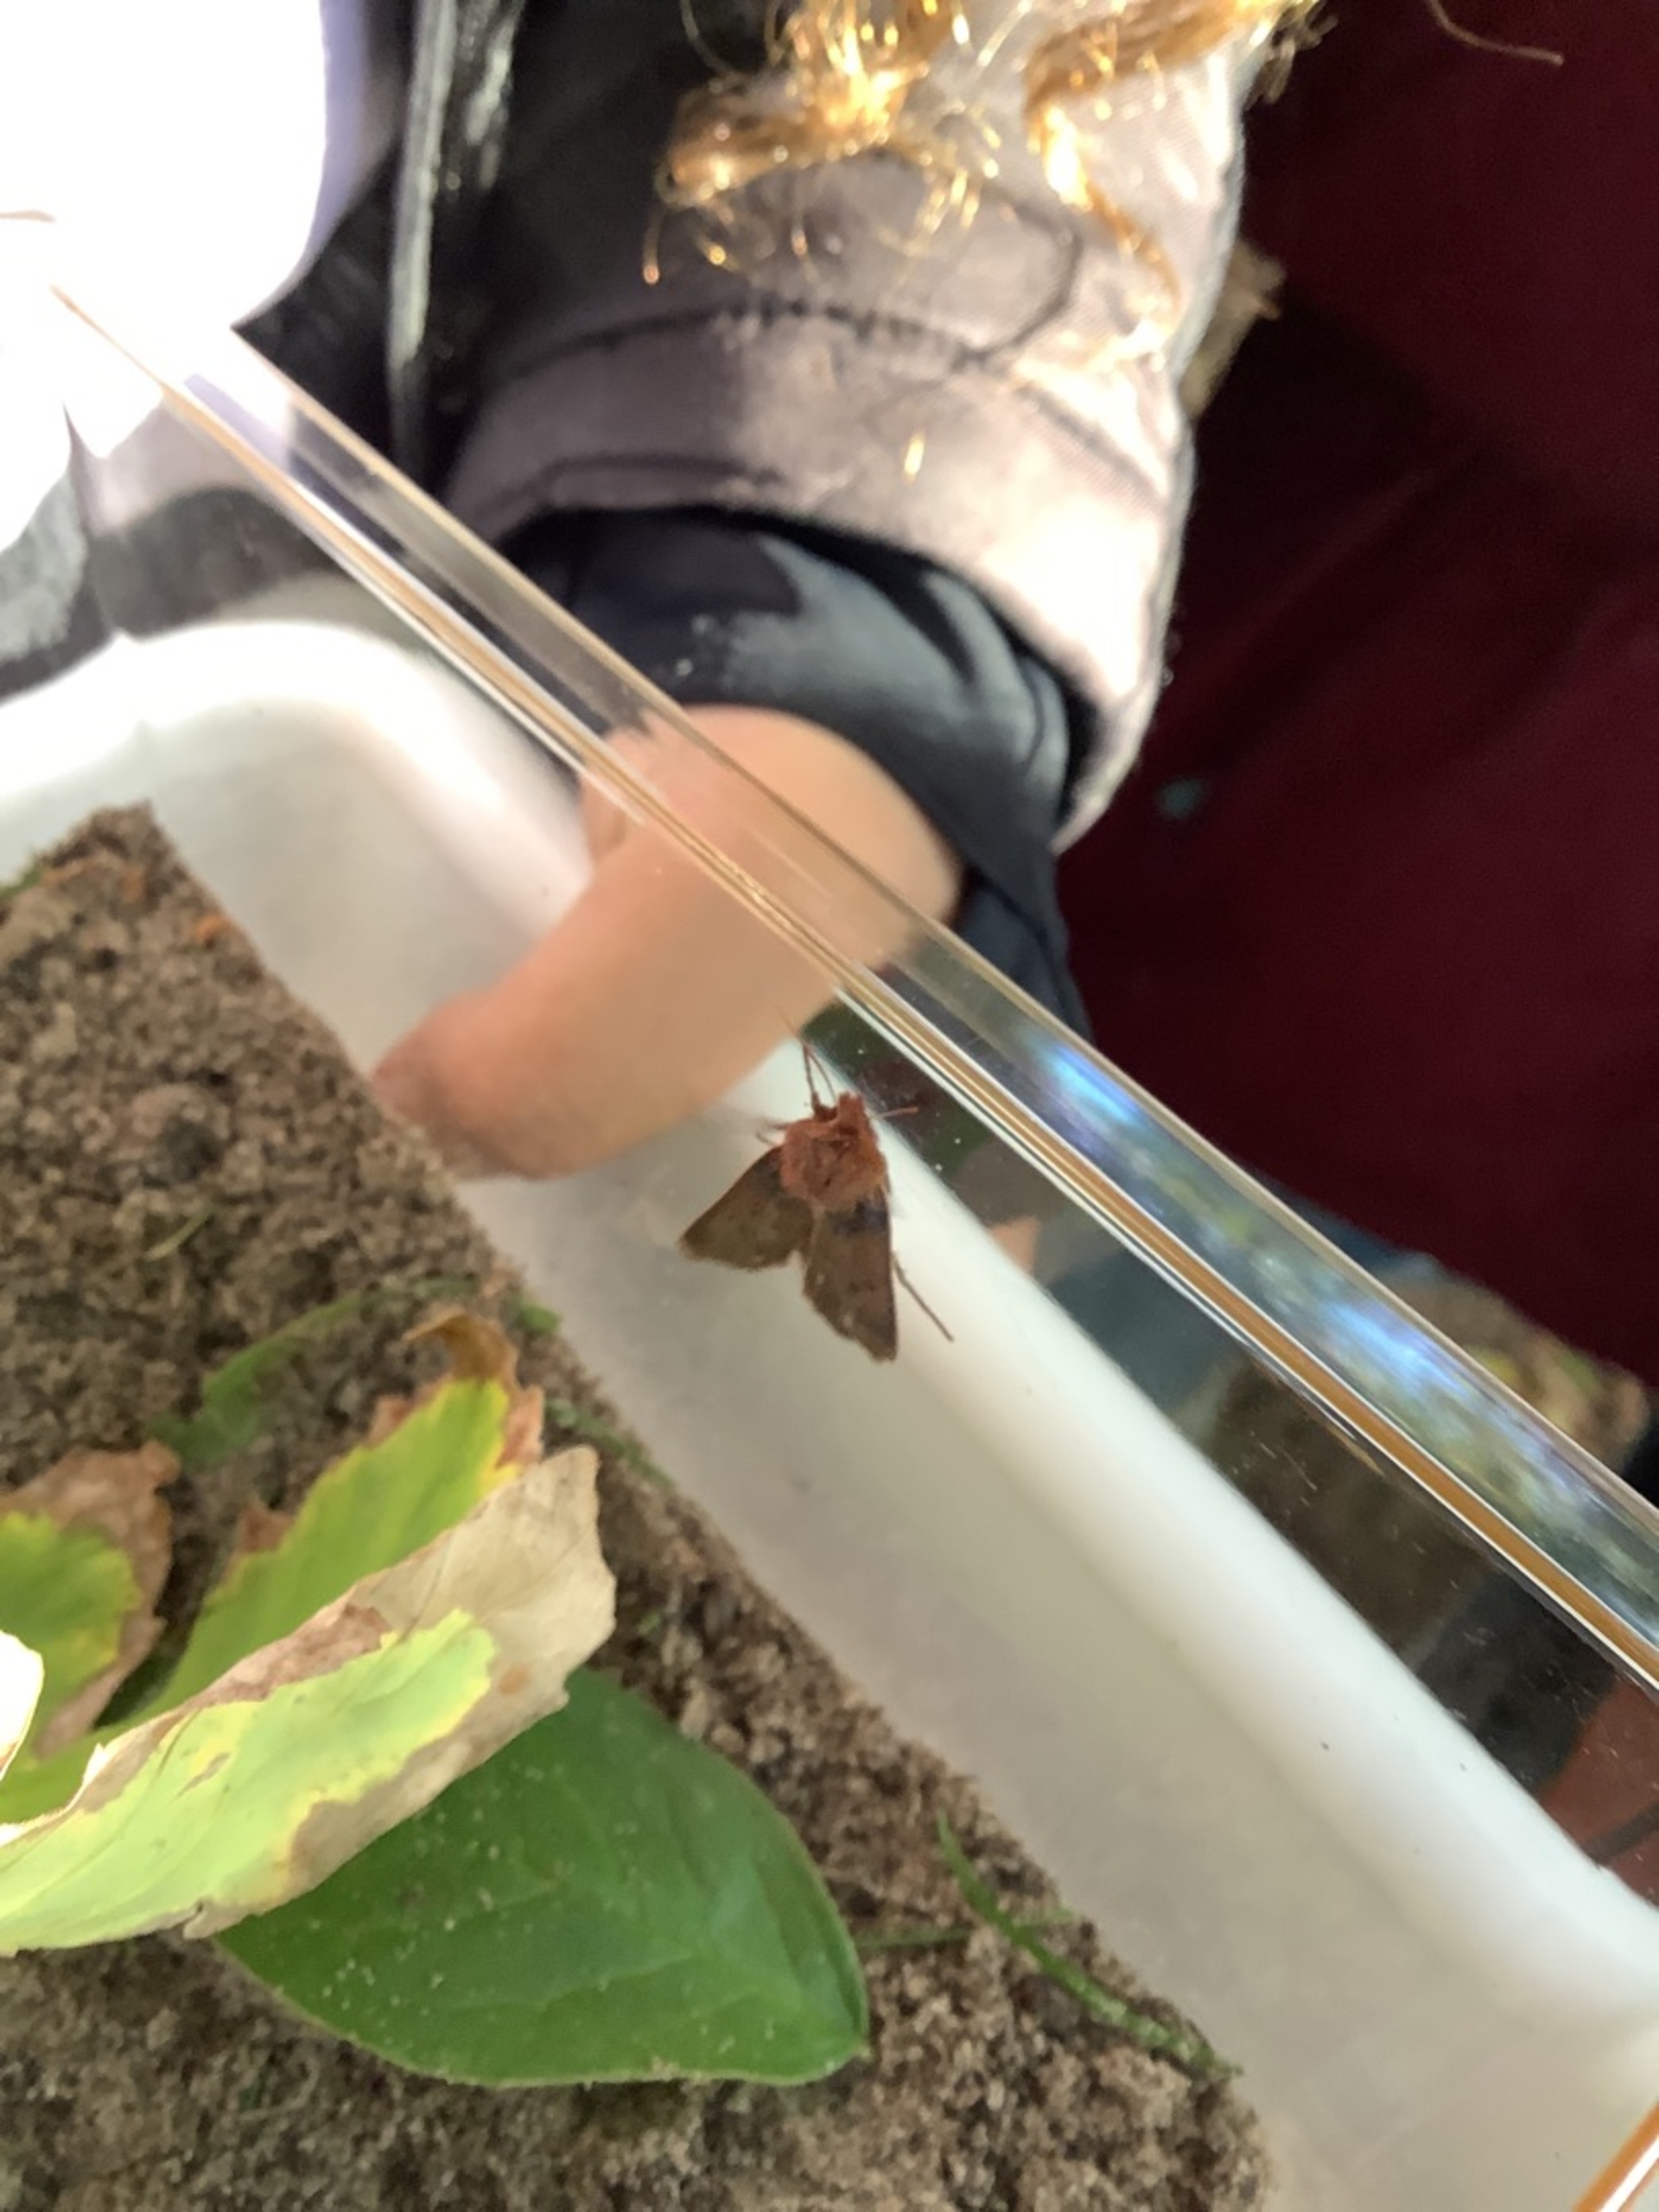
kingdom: Animalia
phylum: Arthropoda
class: Insecta
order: Lepidoptera
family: Noctuidae
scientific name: Noctuidae
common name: Ugler
